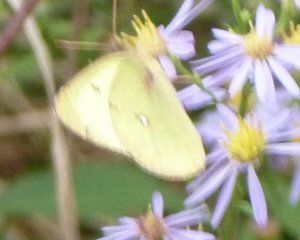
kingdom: Animalia
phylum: Arthropoda
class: Insecta
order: Lepidoptera
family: Pieridae
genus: Colias
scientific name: Colias philodice
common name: Clouded Sulphur
